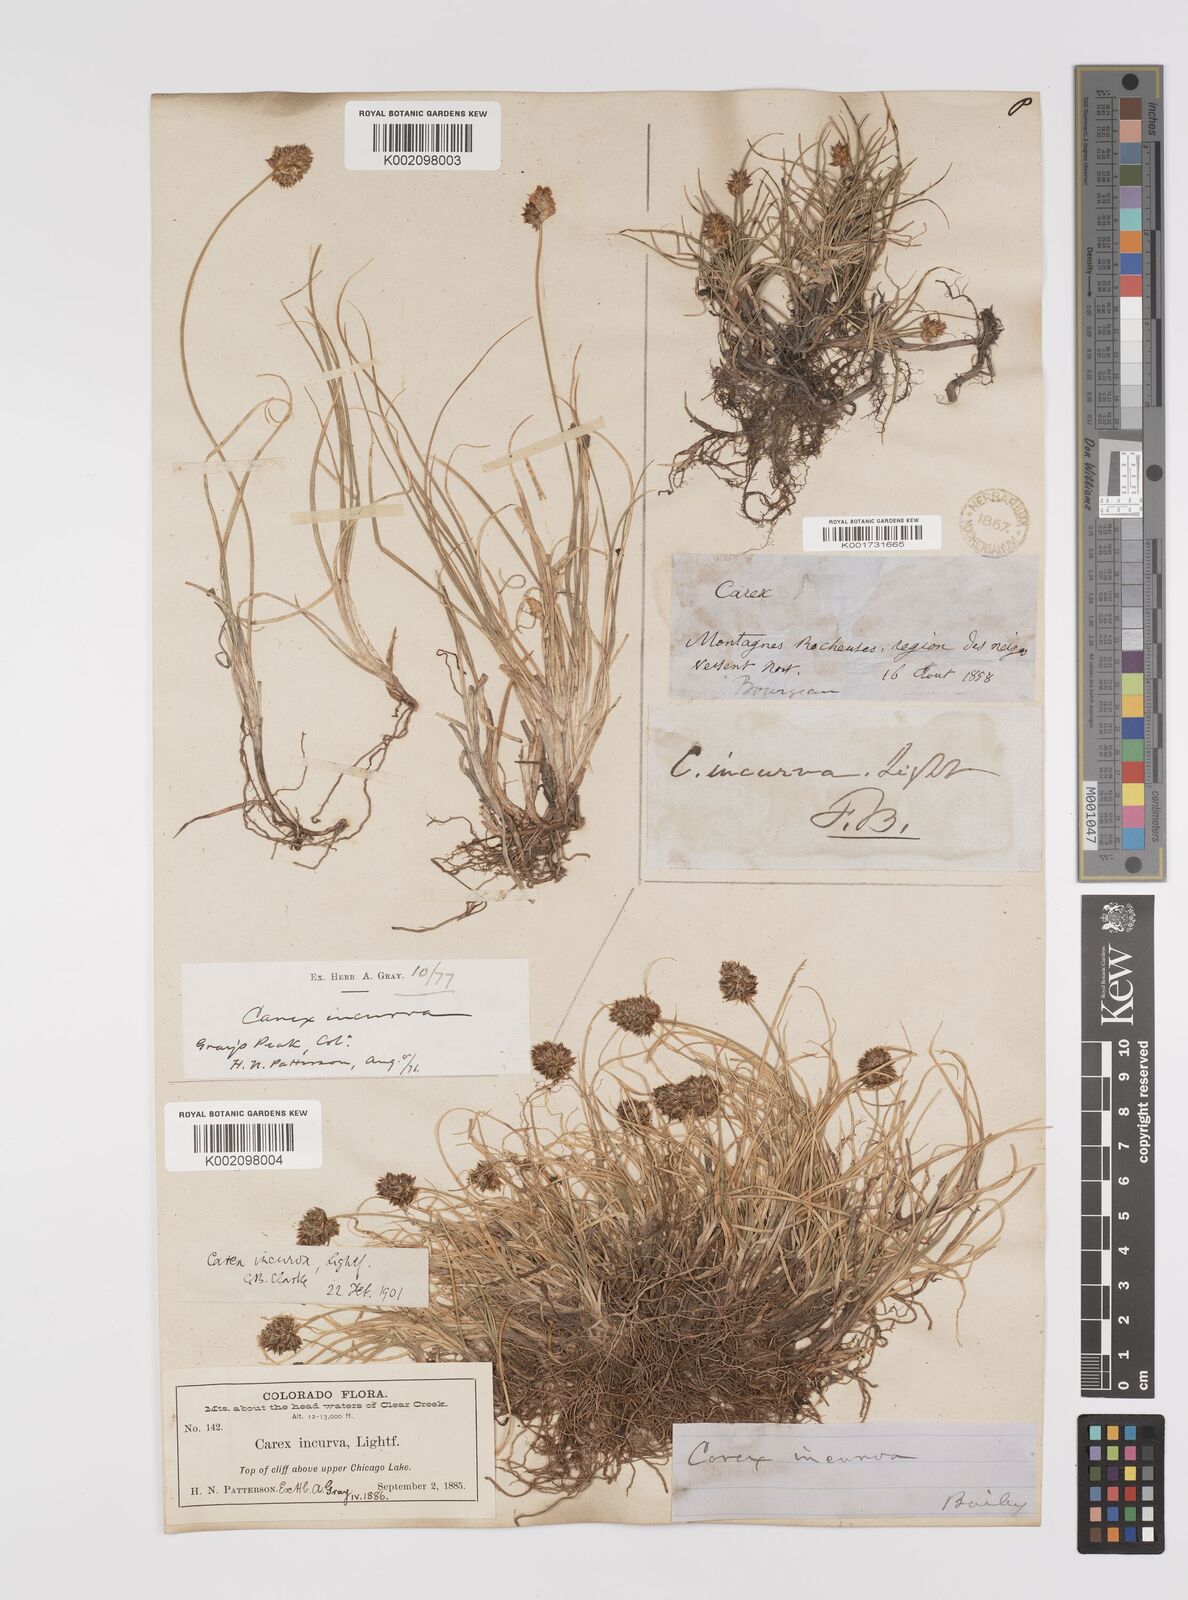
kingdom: Plantae
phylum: Tracheophyta
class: Liliopsida
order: Poales
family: Cyperaceae
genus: Carex
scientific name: Carex maritima
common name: Curved sedge
